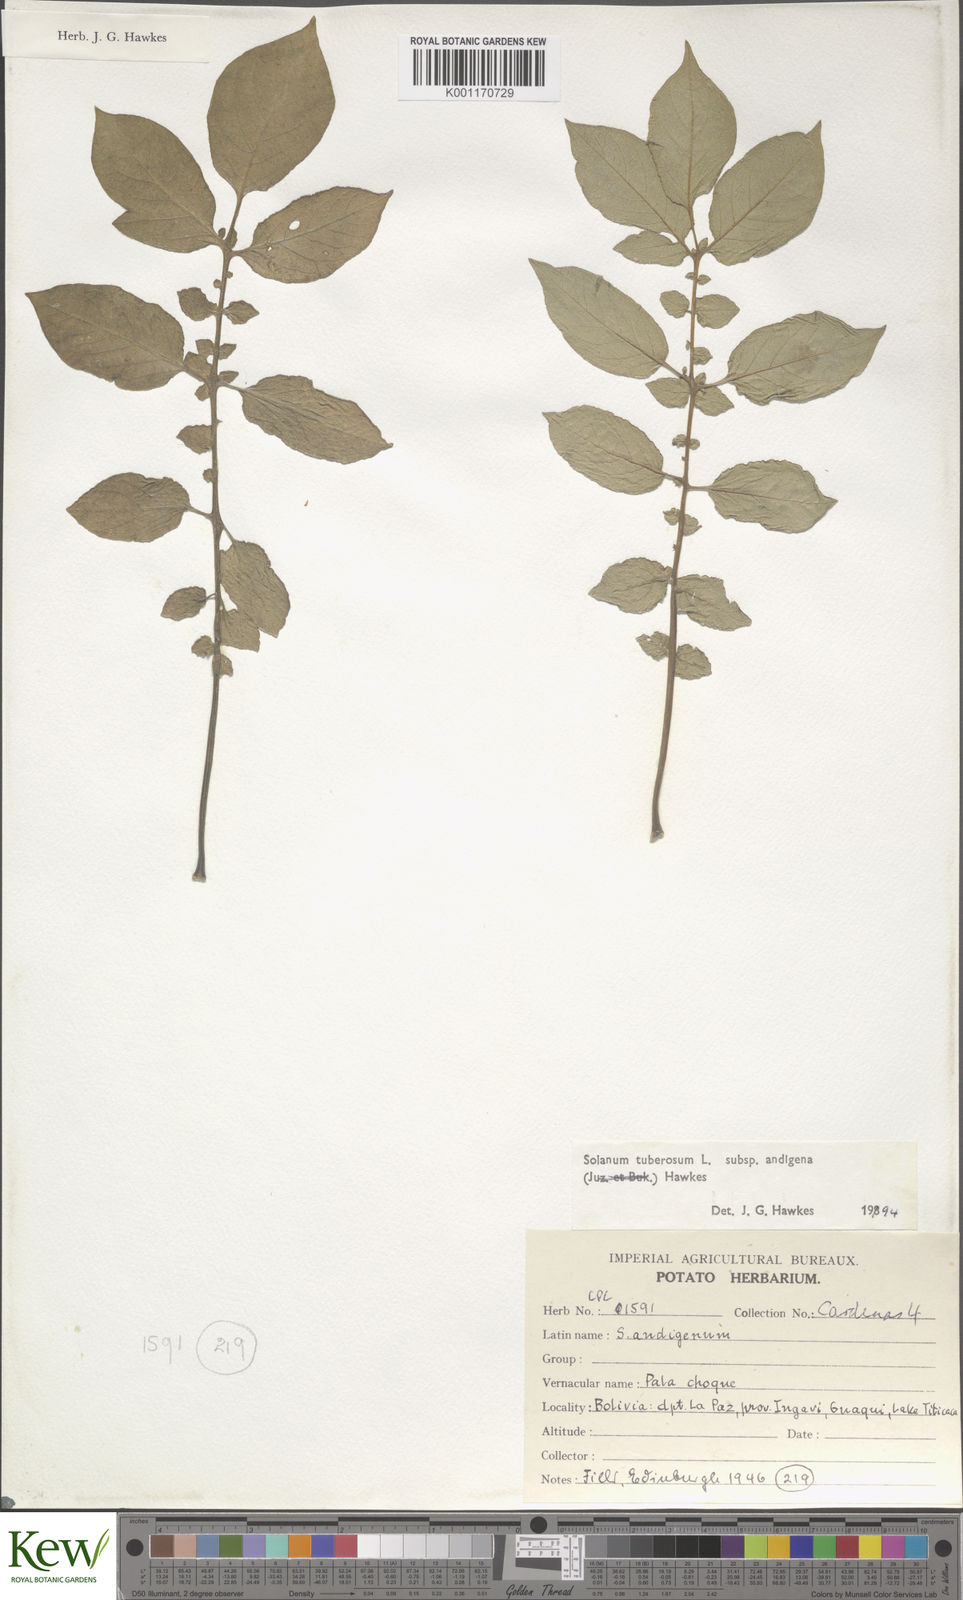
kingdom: Plantae
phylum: Tracheophyta
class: Magnoliopsida
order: Solanales
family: Solanaceae
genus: Solanum
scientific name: Solanum tuberosum
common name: Potato
